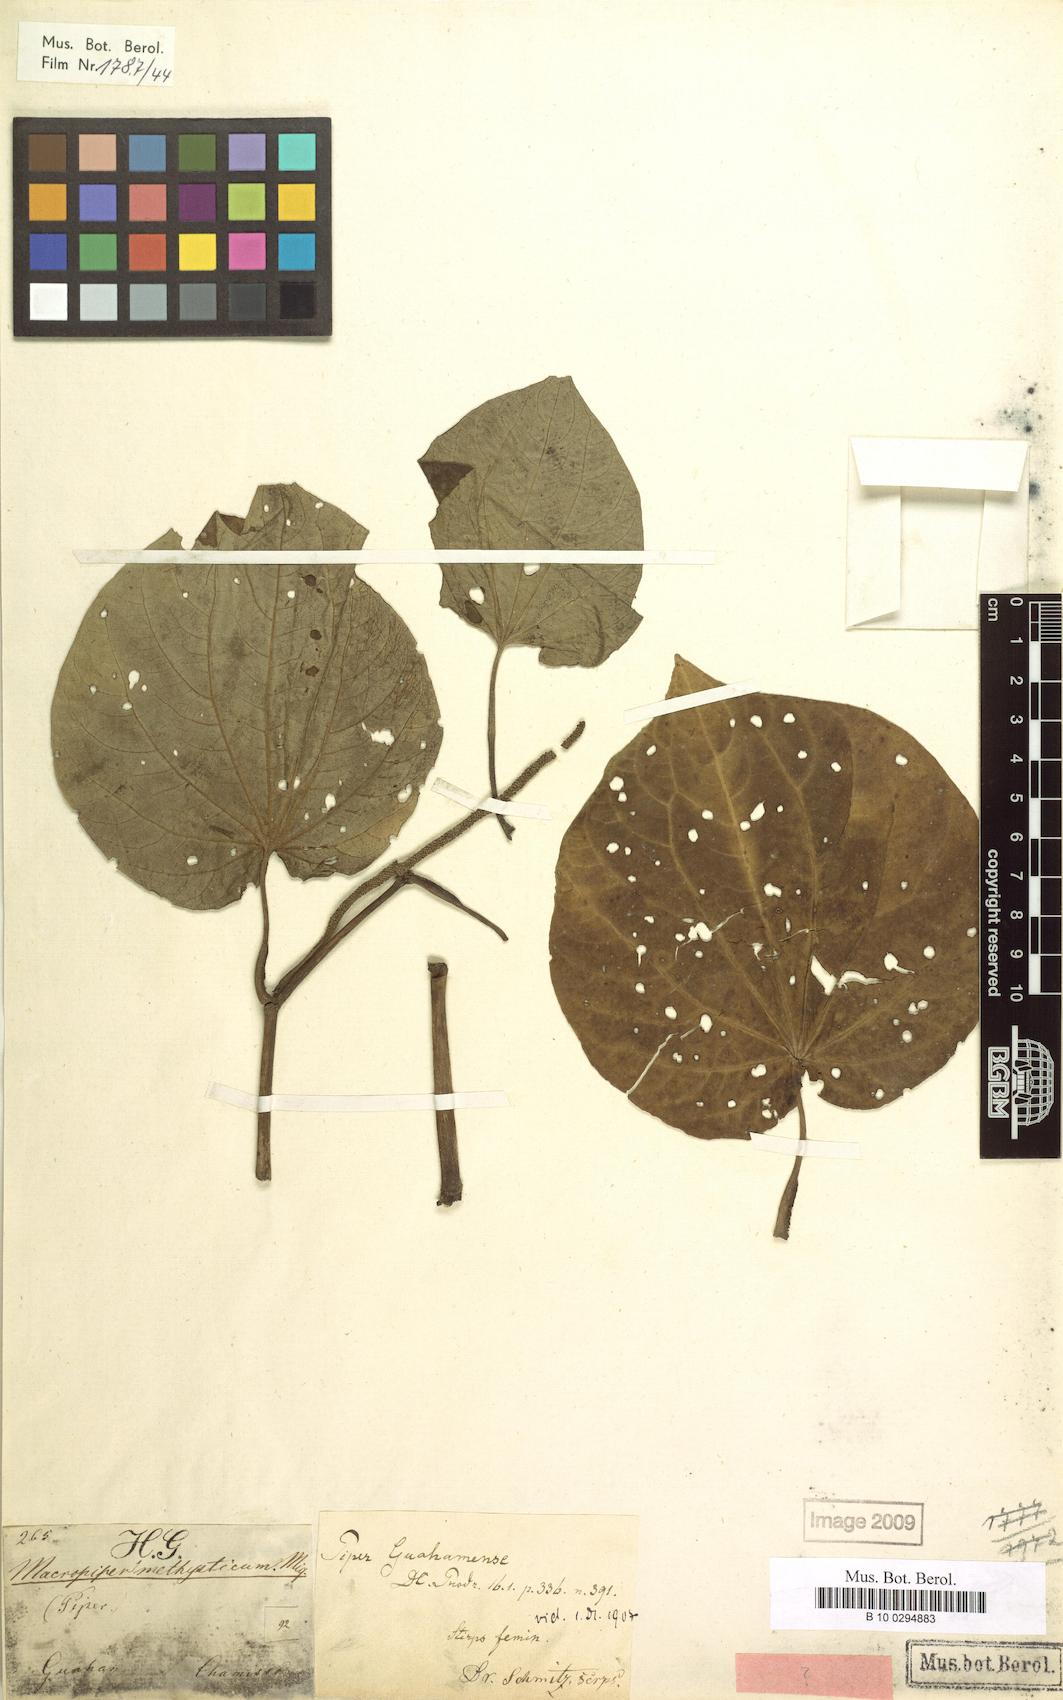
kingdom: Plantae
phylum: Tracheophyta
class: Magnoliopsida
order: Piperales
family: Piperaceae
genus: Macropiper
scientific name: Macropiper guahamense
